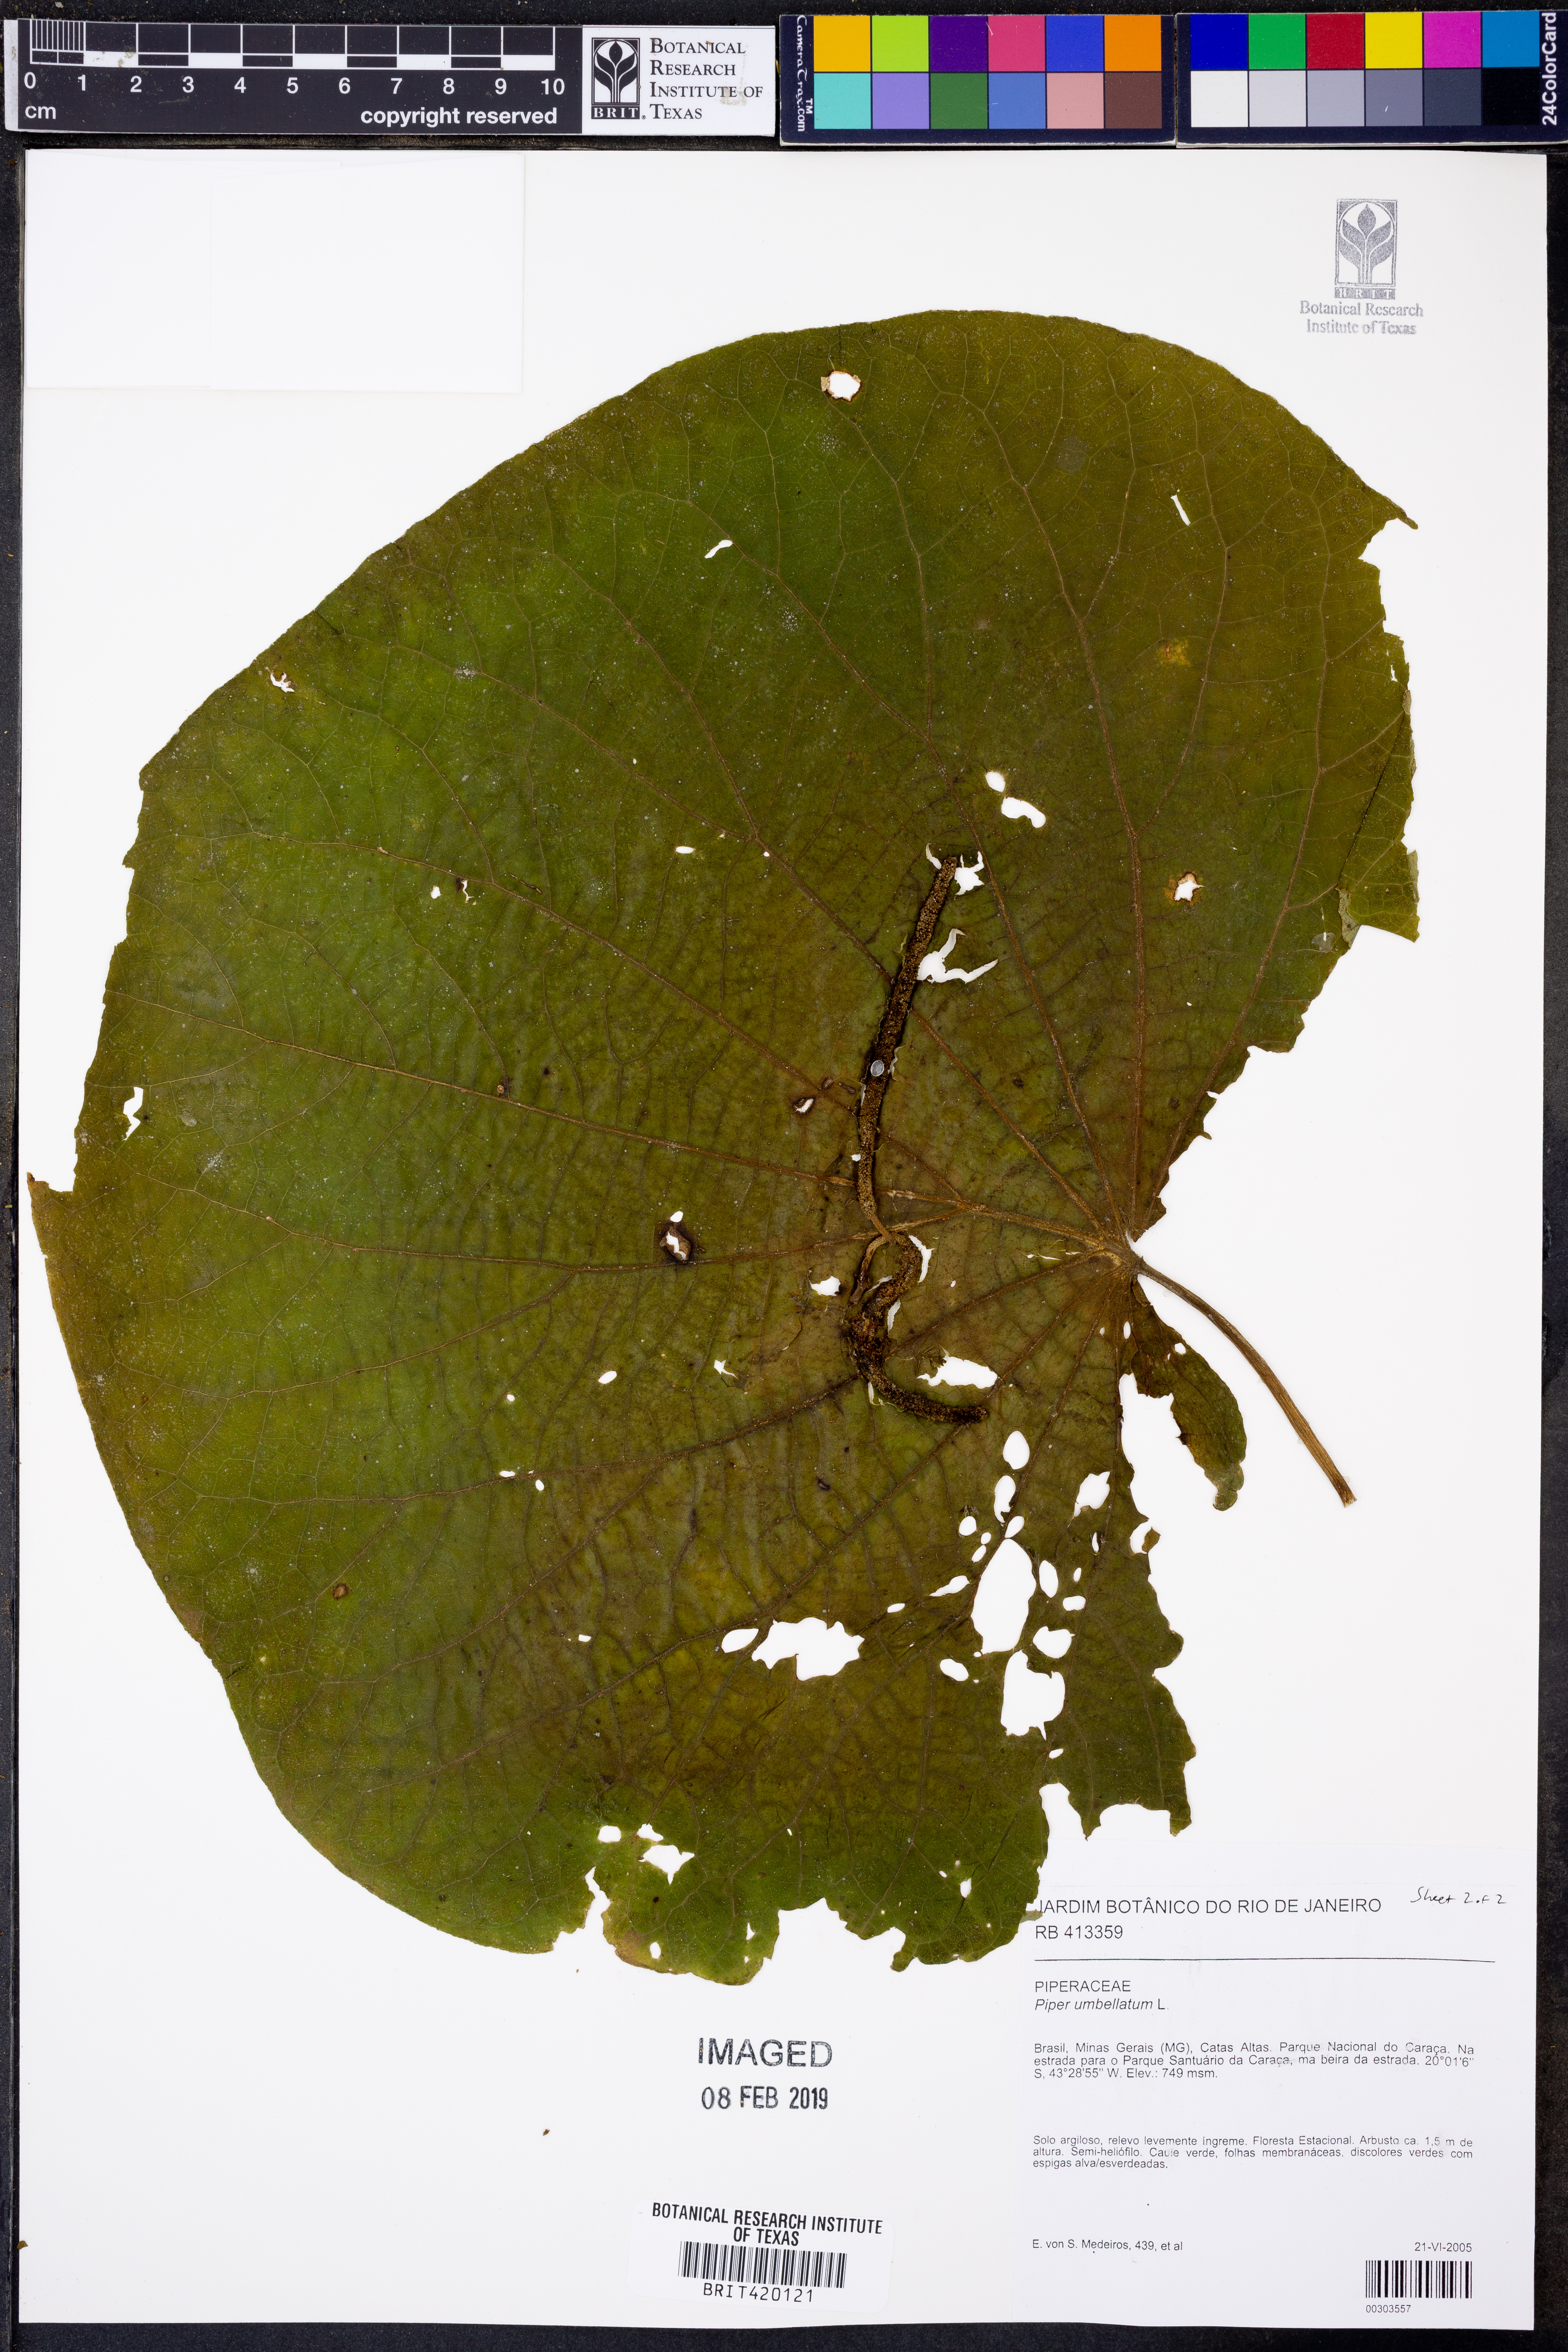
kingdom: Plantae
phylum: Tracheophyta
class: Magnoliopsida
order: Piperales
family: Piperaceae
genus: Piper
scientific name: Piper umbellatum
